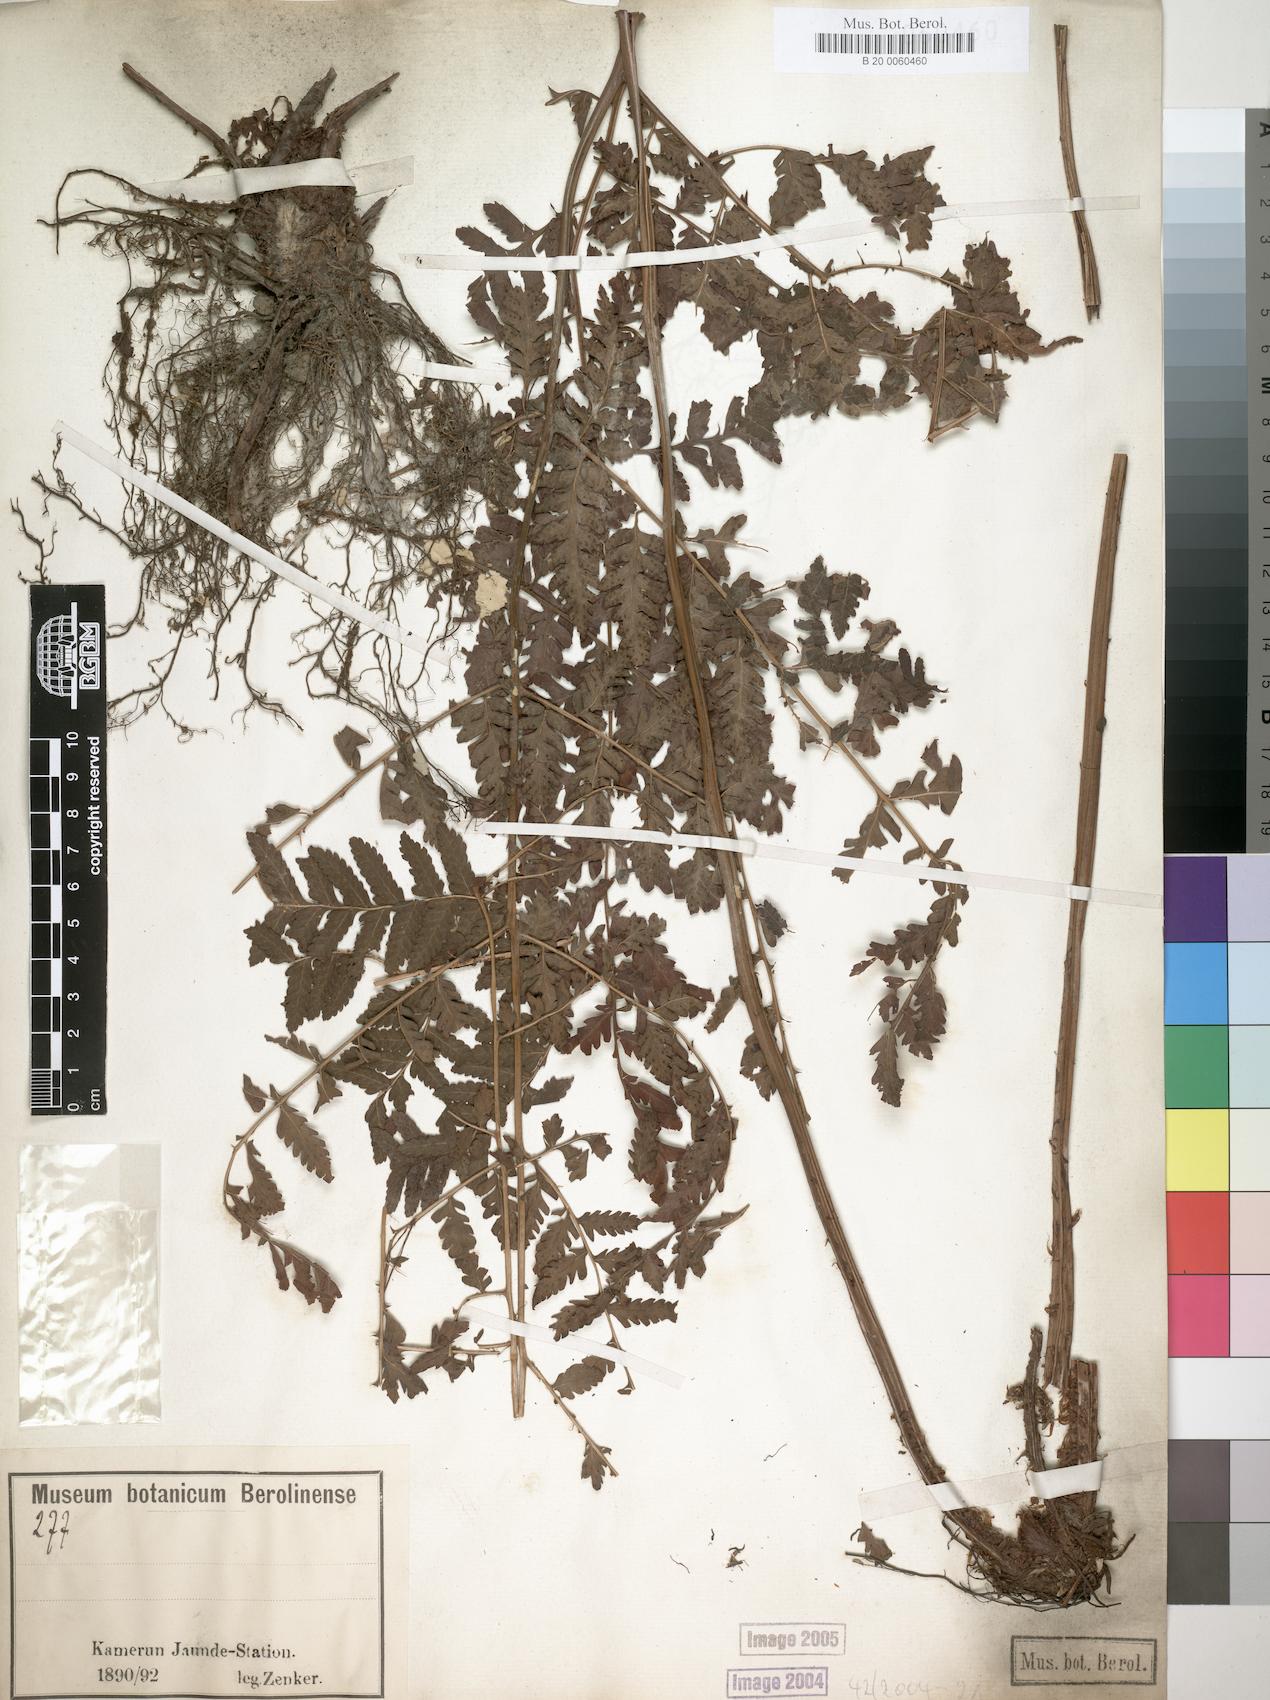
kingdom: Plantae
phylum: Tracheophyta
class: Polypodiopsida
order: Polypodiales
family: Dryopteridaceae
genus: Parapolystichum
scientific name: Parapolystichum nigritianum
